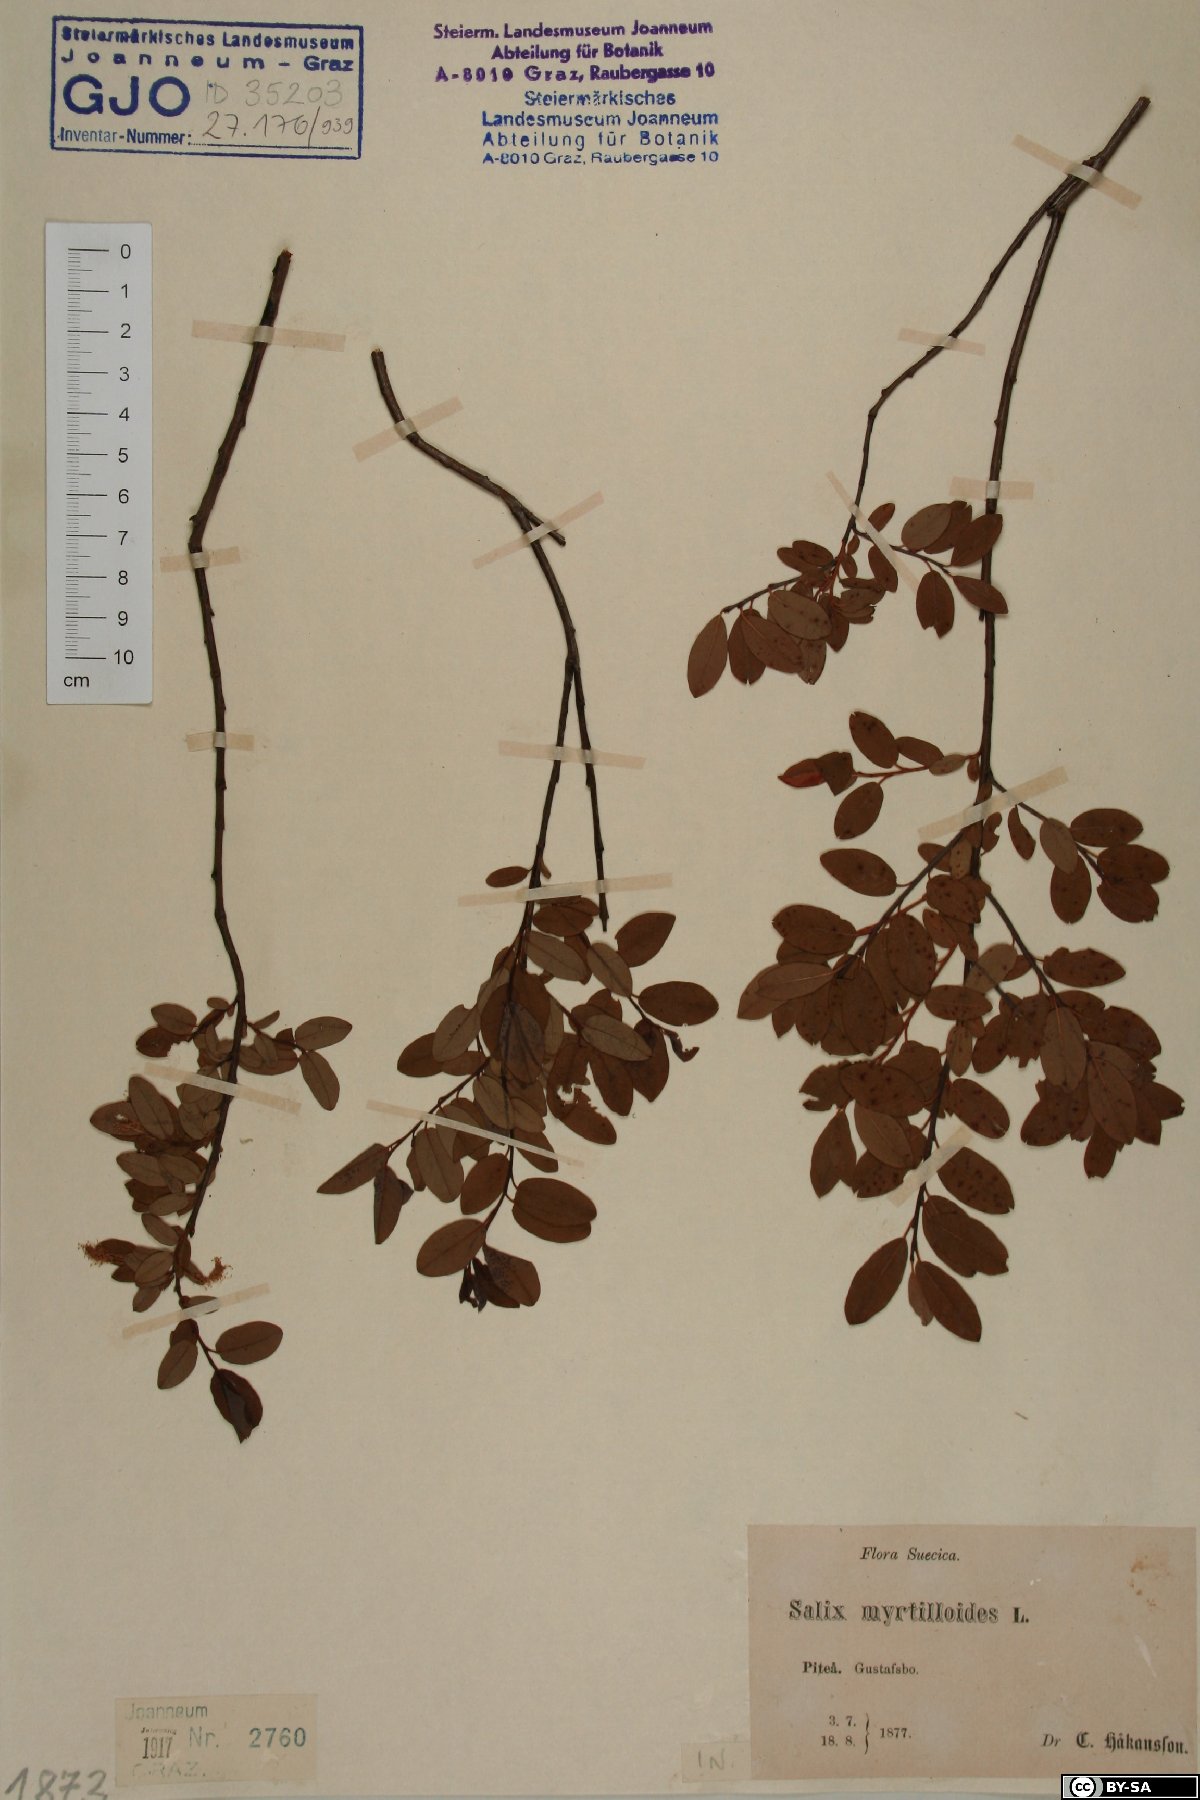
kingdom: Plantae
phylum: Tracheophyta
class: Magnoliopsida
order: Malpighiales
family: Salicaceae
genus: Salix
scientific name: Salix myrtilloides
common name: Myrtle-leaved willow
